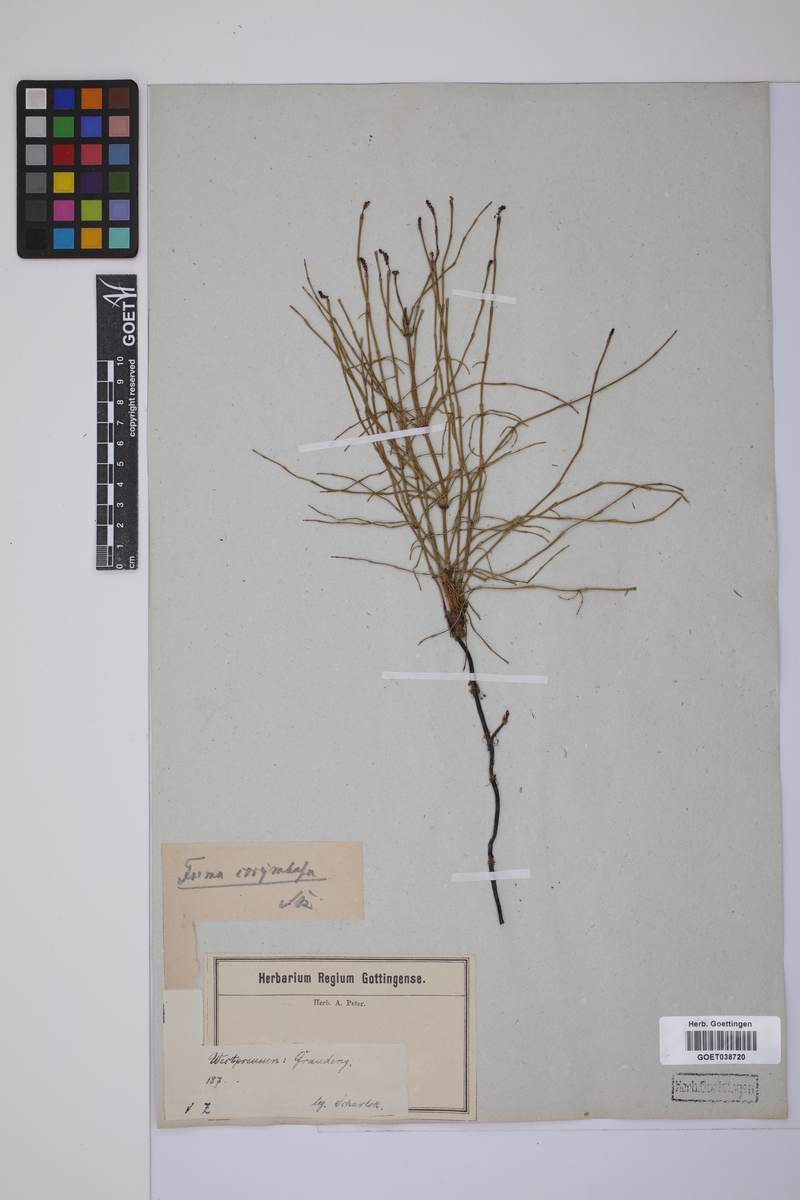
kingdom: Plantae
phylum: Tracheophyta
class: Polypodiopsida
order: Equisetales
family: Equisetaceae
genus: Equisetum
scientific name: Equisetum palustre
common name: Marsh horsetail
